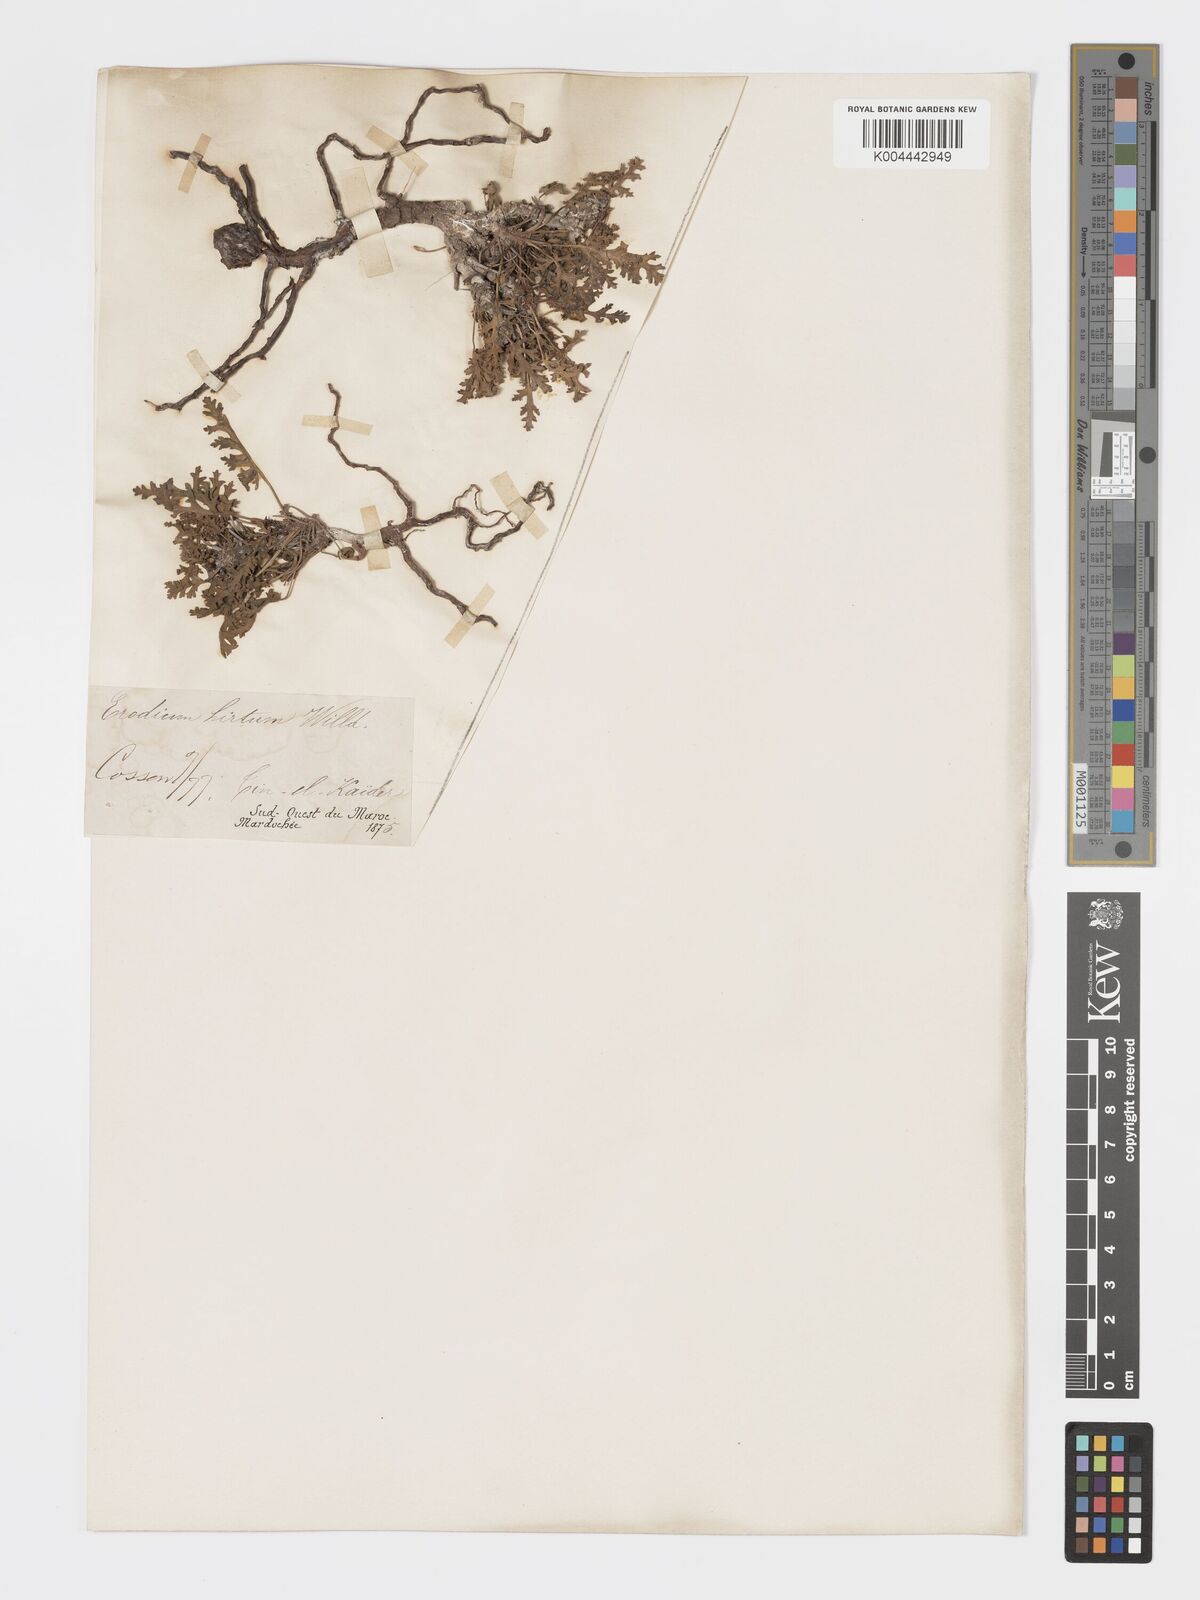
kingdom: Plantae
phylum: Tracheophyta
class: Magnoliopsida
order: Geraniales
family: Geraniaceae
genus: Erodium
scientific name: Erodium crassifolium
